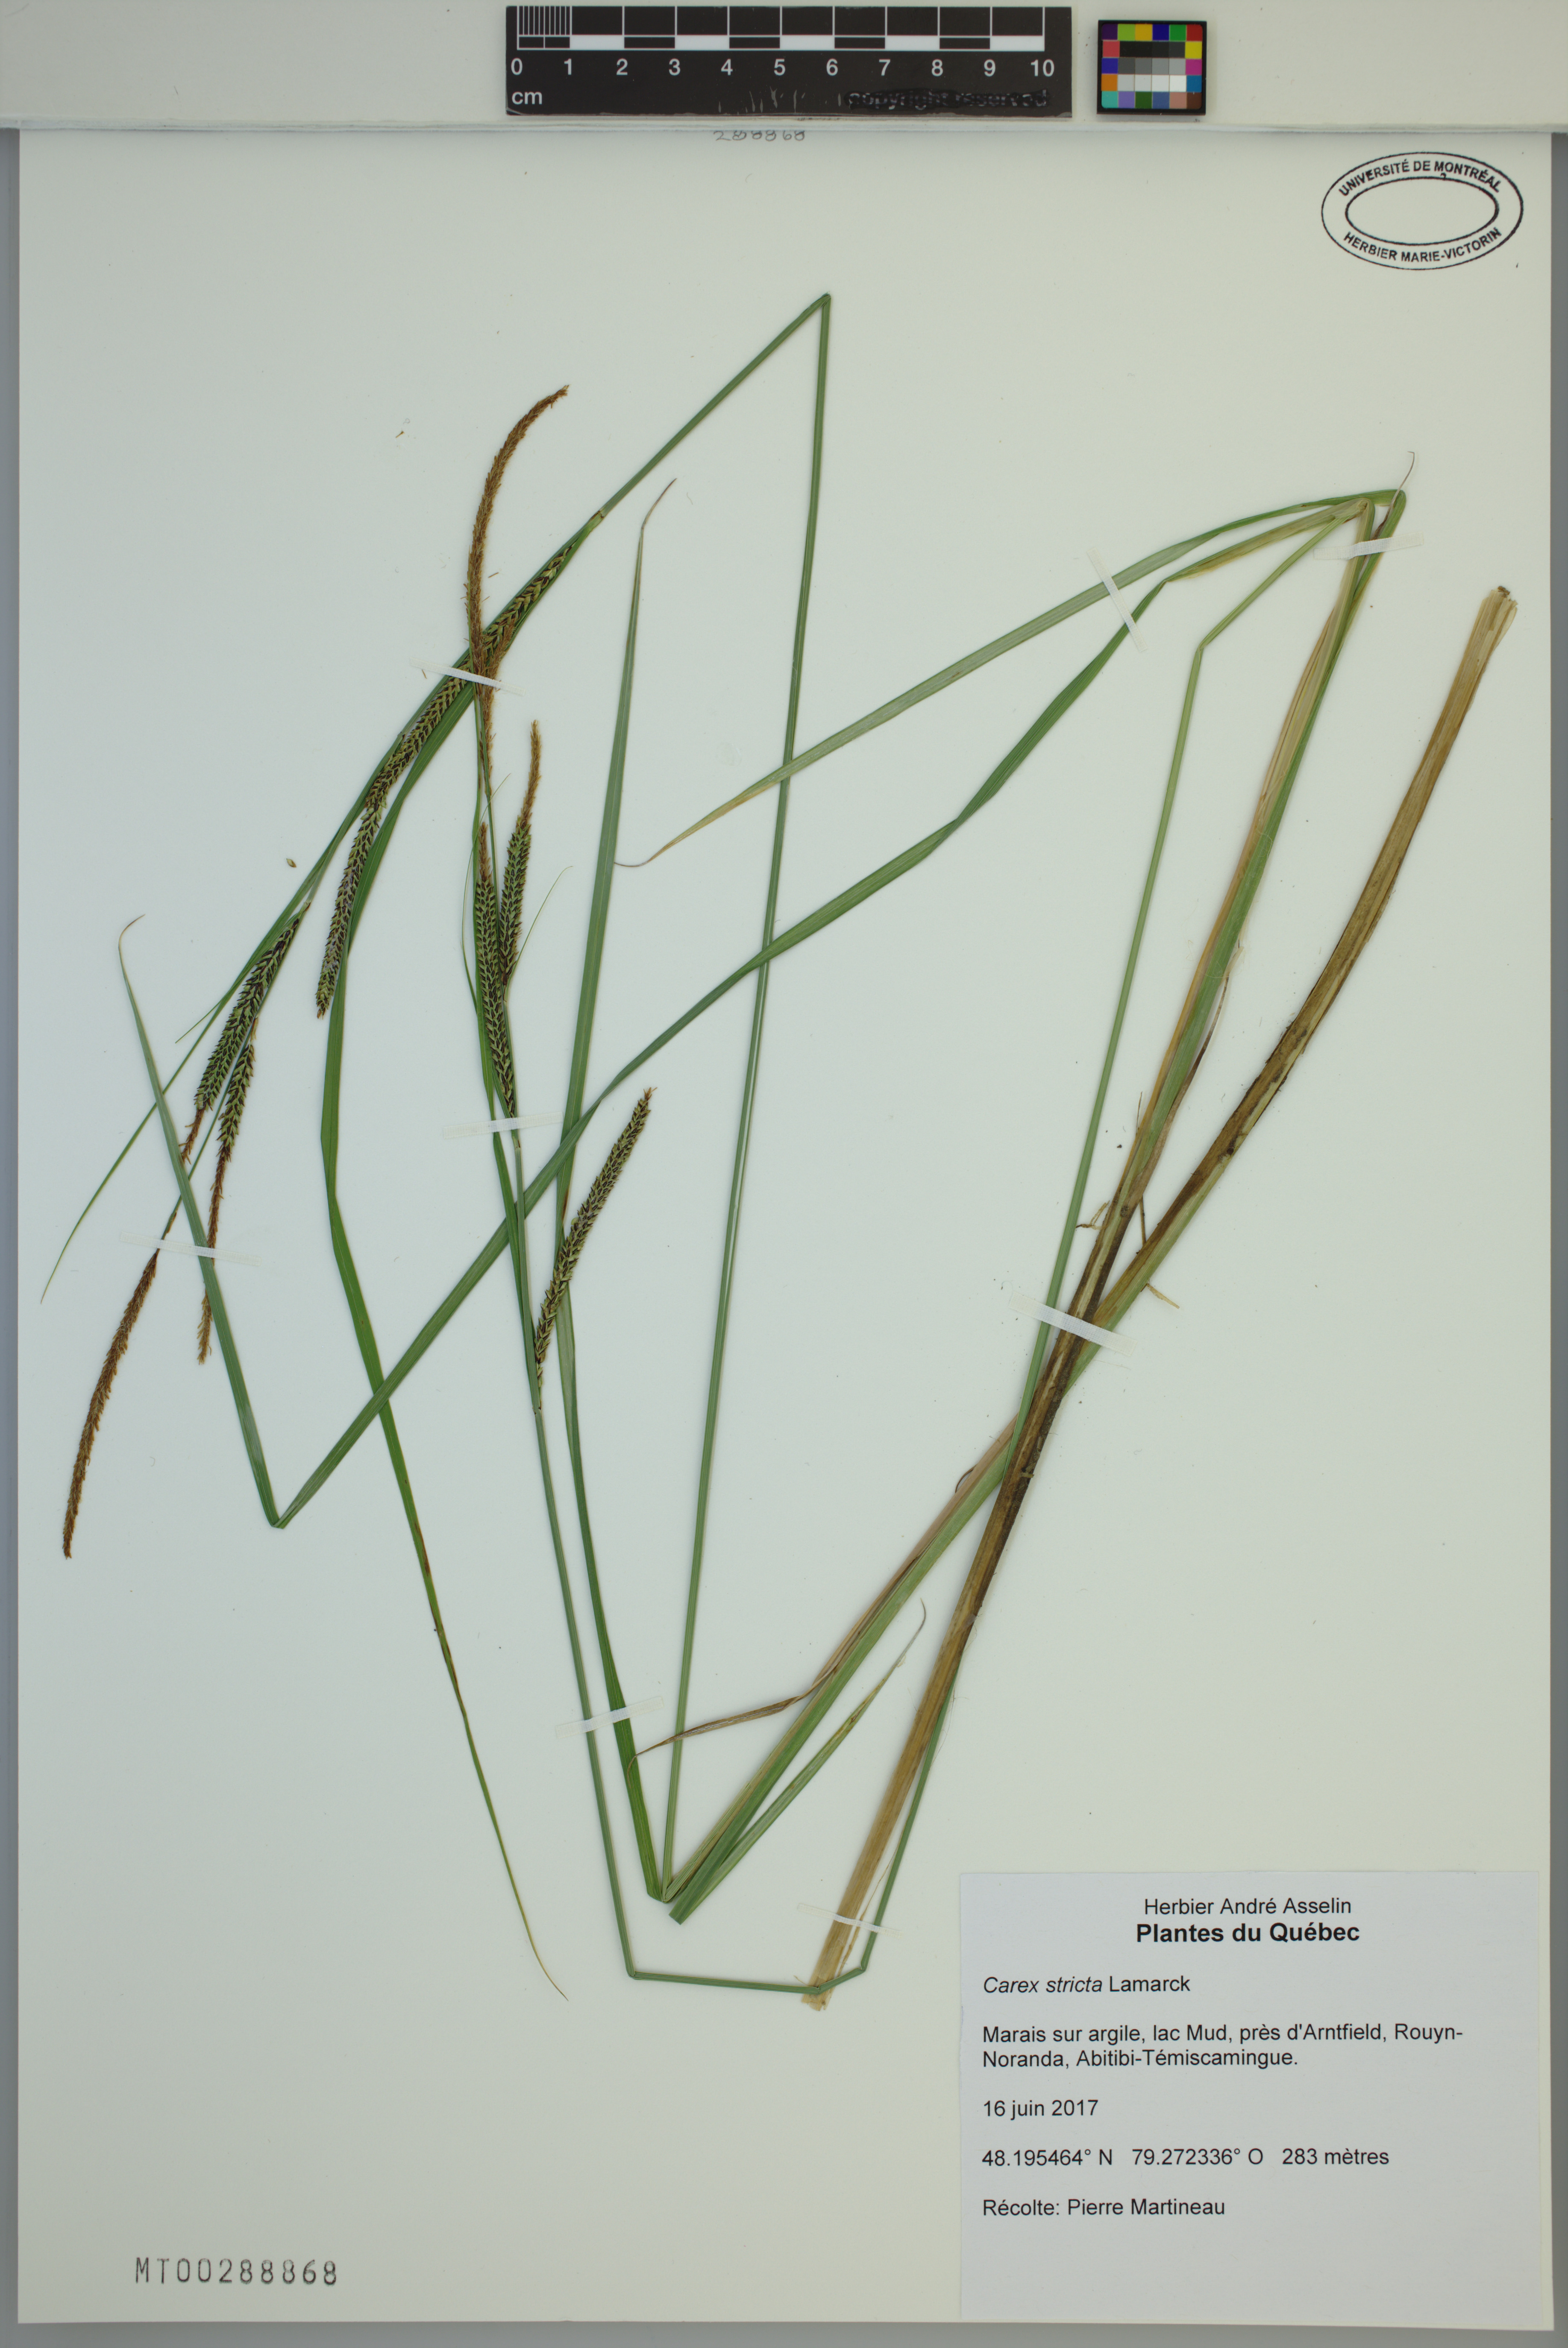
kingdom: Plantae
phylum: Tracheophyta
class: Liliopsida
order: Poales
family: Cyperaceae
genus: Carex
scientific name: Carex stricta
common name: Hummock sedge
